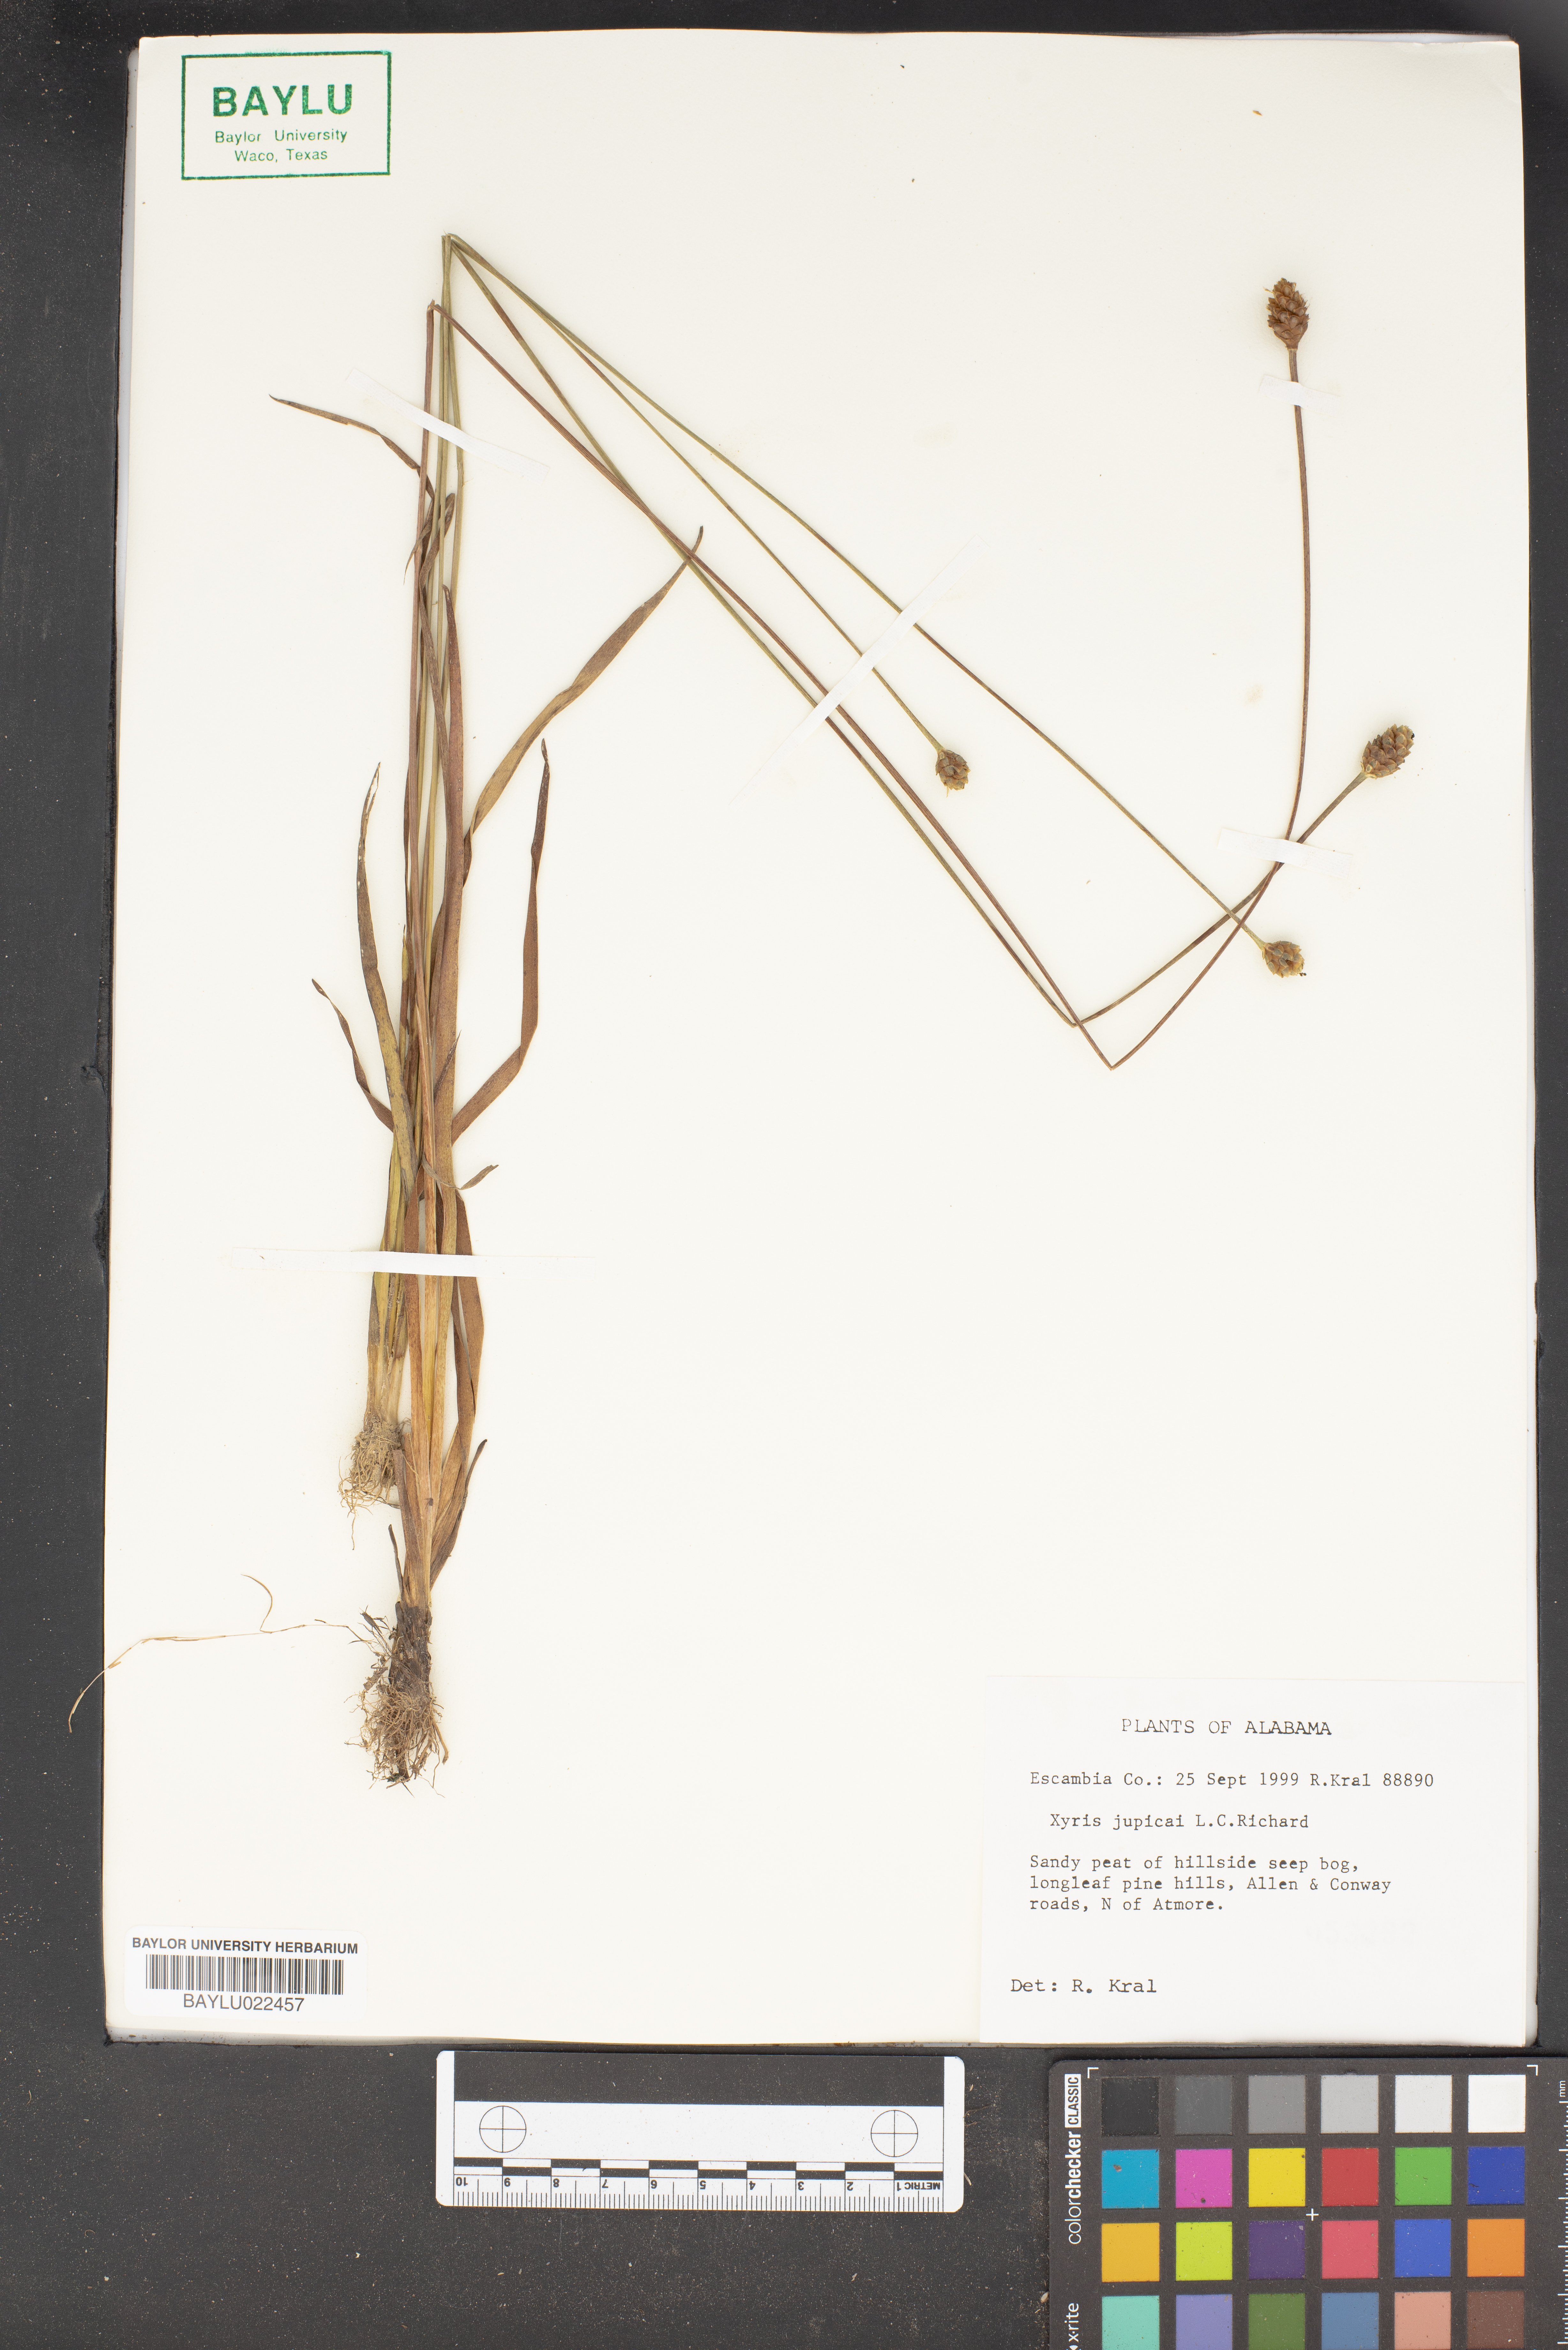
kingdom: Plantae
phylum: Tracheophyta
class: Liliopsida
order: Poales
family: Xyridaceae
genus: Xyris
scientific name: Xyris jupicai
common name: Richard's yelloweyed grass
